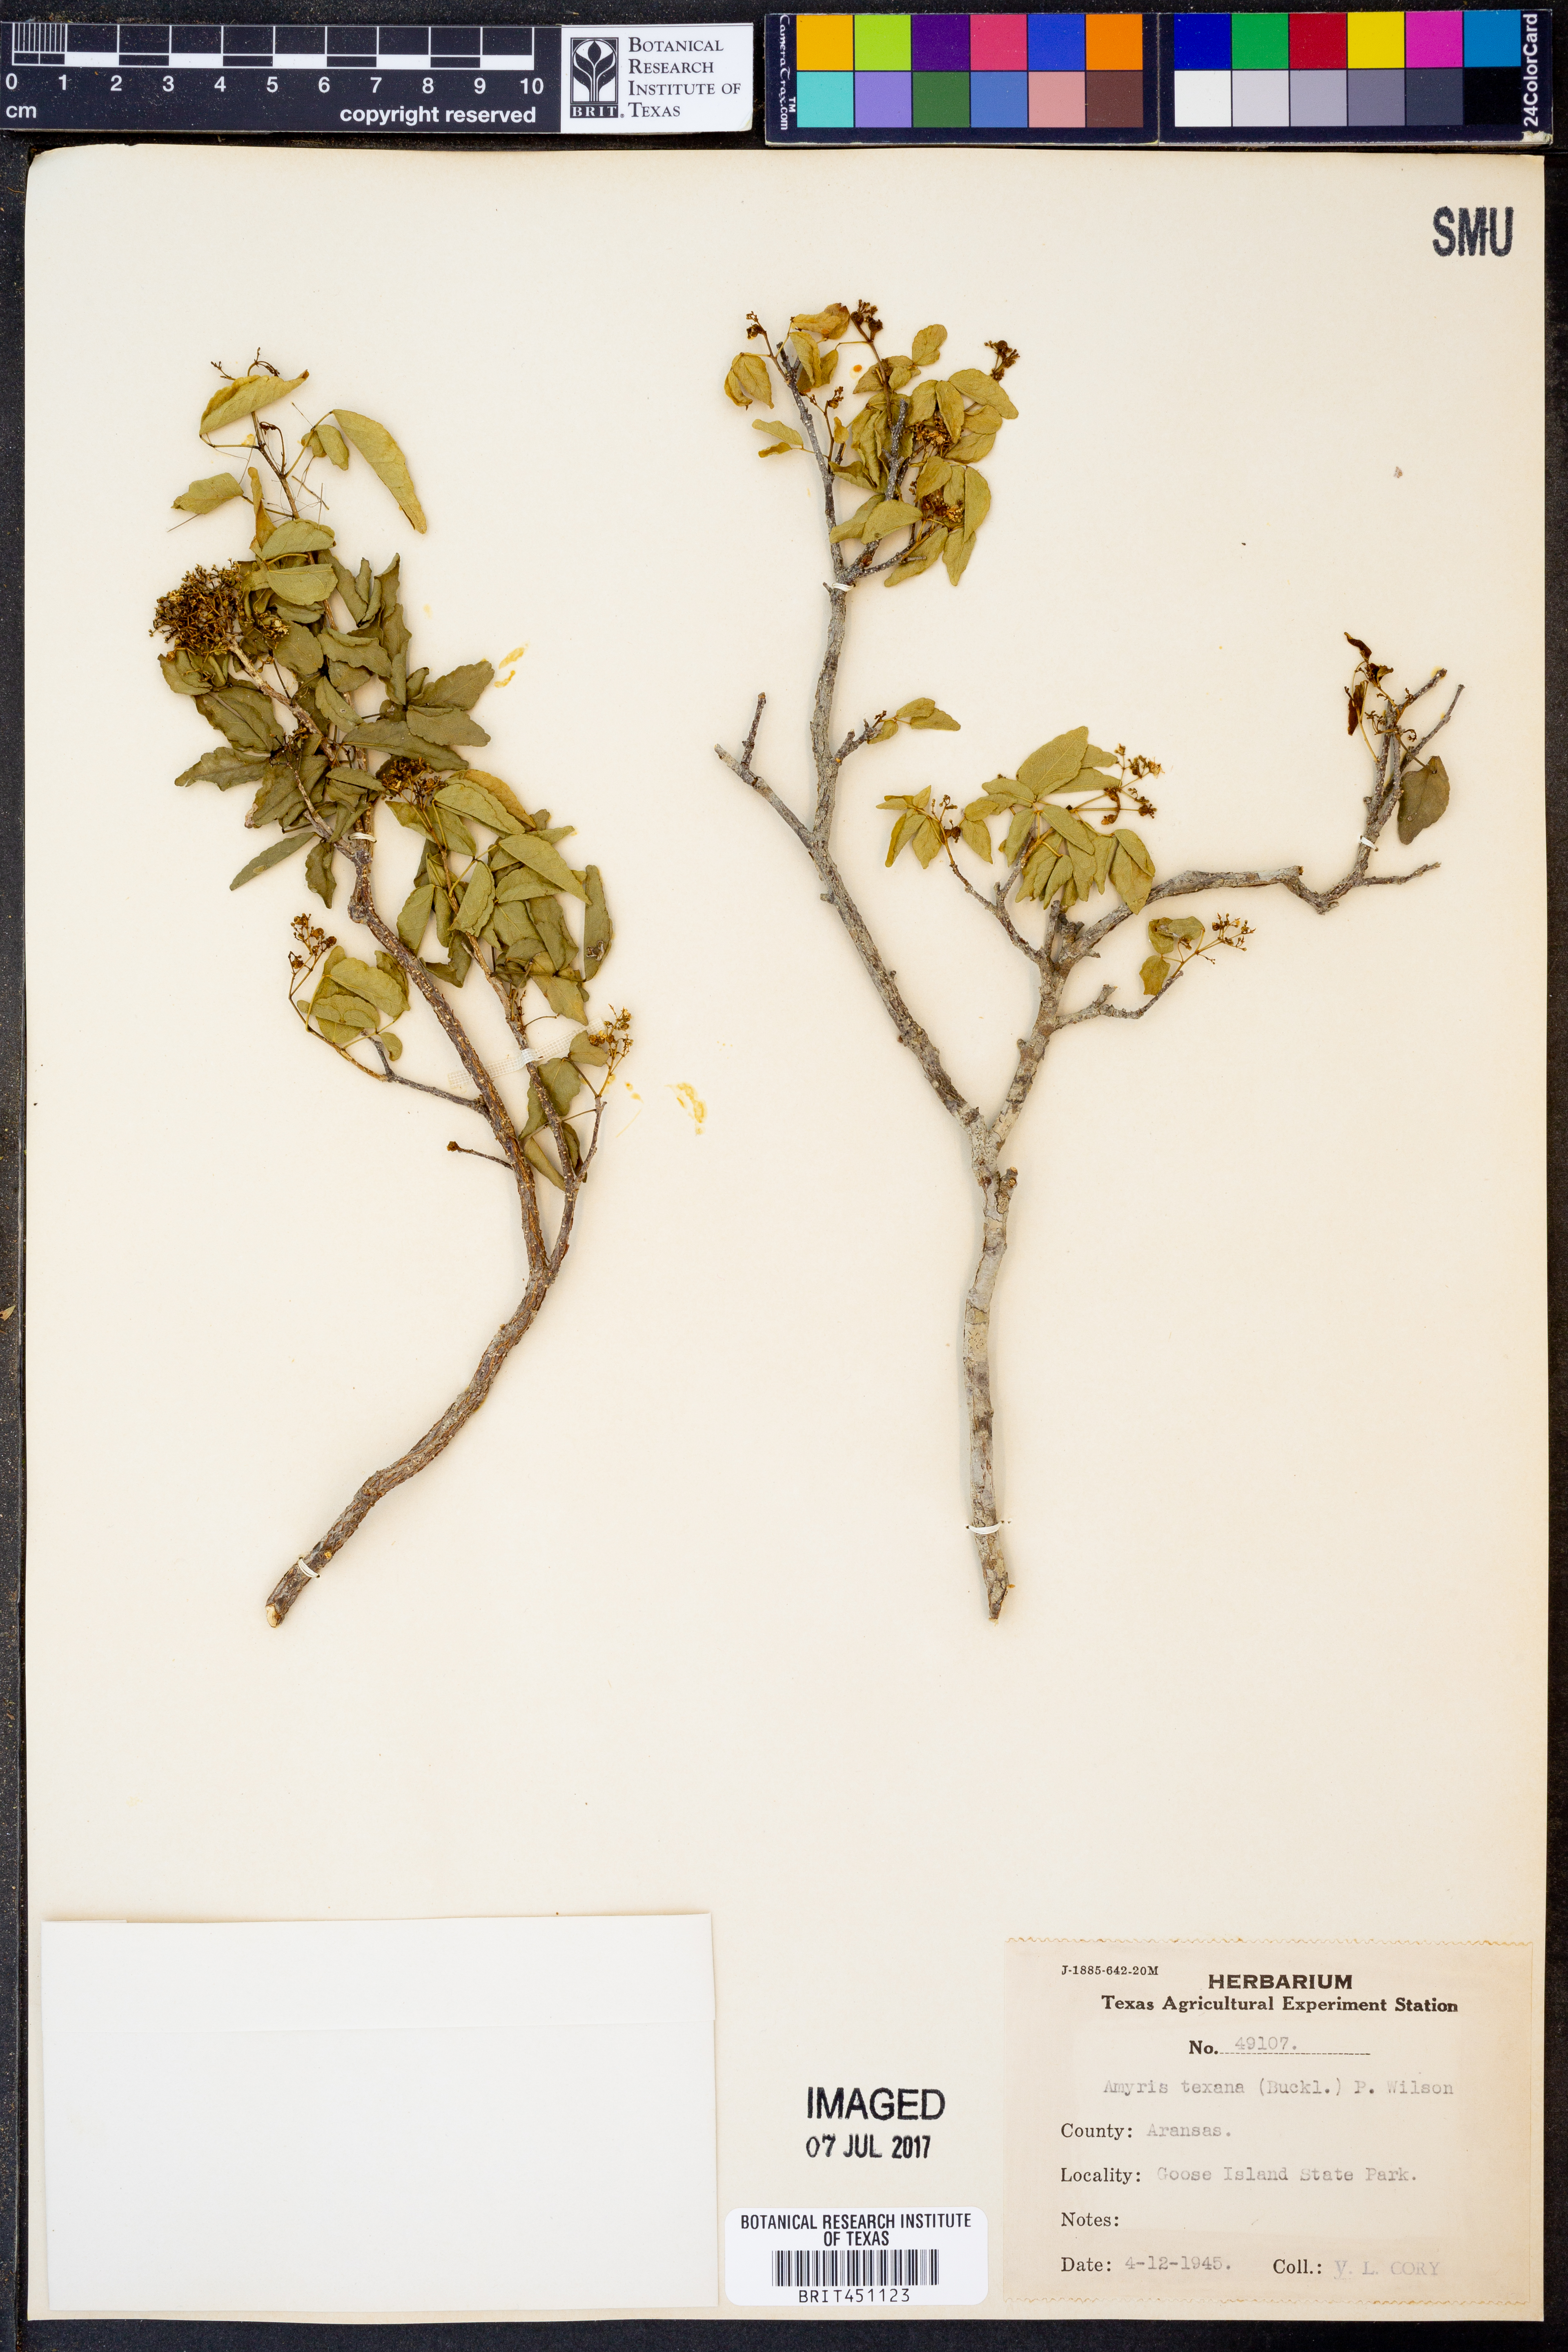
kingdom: Plantae
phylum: Tracheophyta
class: Magnoliopsida
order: Sapindales
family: Rutaceae
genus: Amyris
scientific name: Amyris texana
